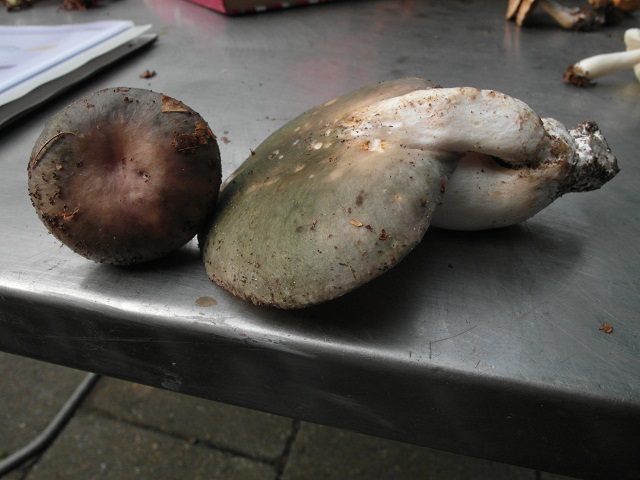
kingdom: Fungi
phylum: Basidiomycota
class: Agaricomycetes
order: Russulales
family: Russulaceae
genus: Russula
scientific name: Russula cyanoxantha
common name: broget skørhat
